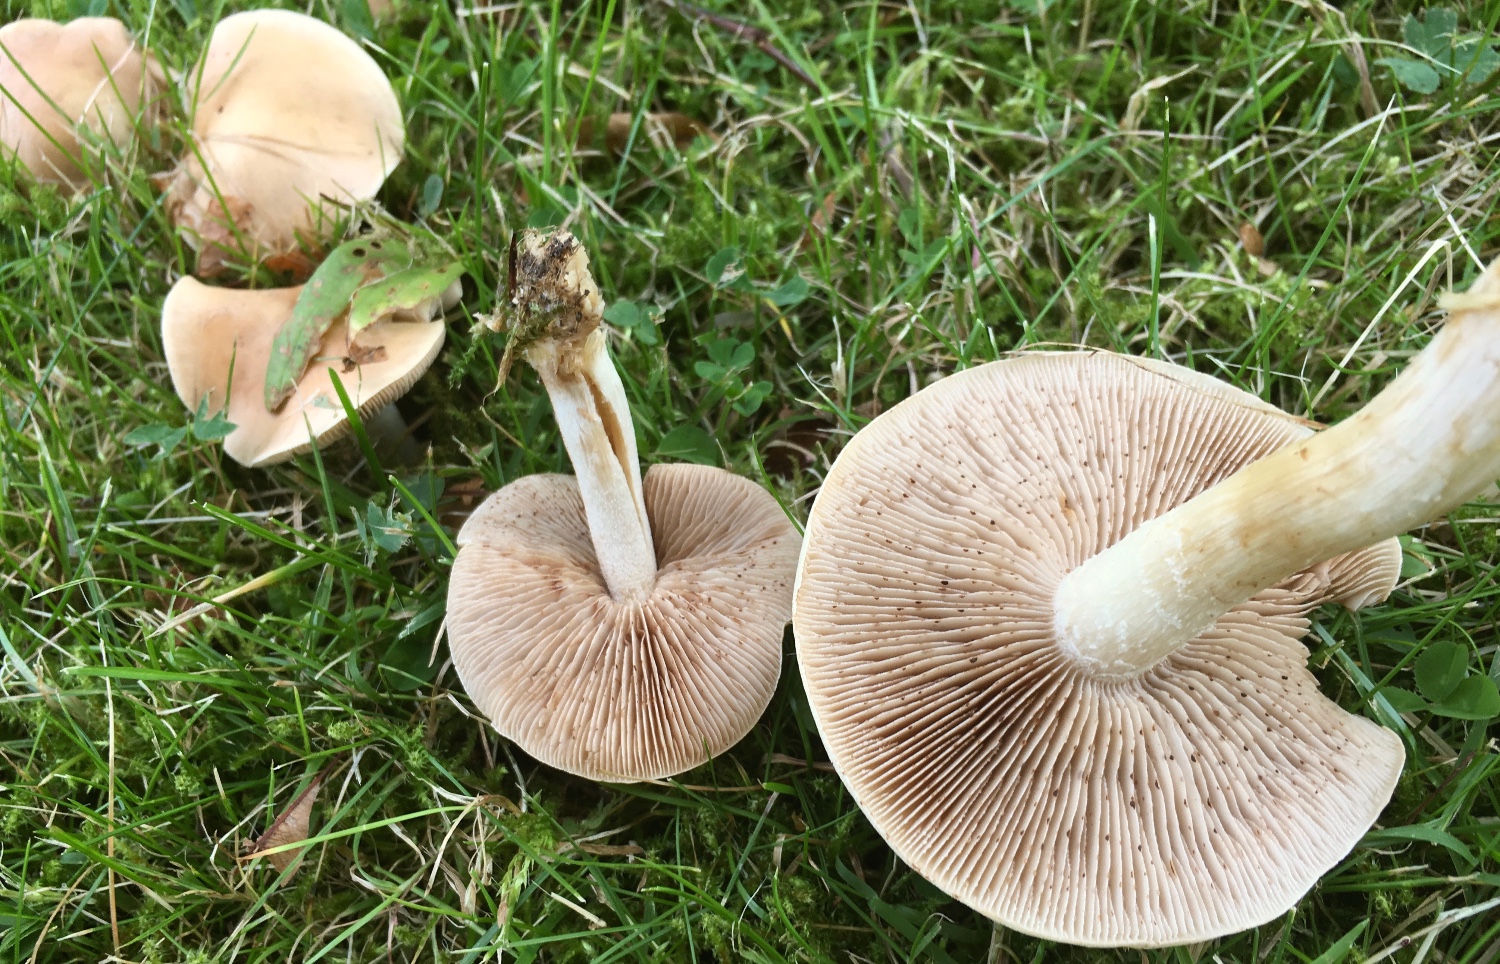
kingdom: Fungi
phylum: Basidiomycota
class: Agaricomycetes
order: Agaricales
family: Hymenogastraceae
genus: Hebeloma
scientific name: Hebeloma
